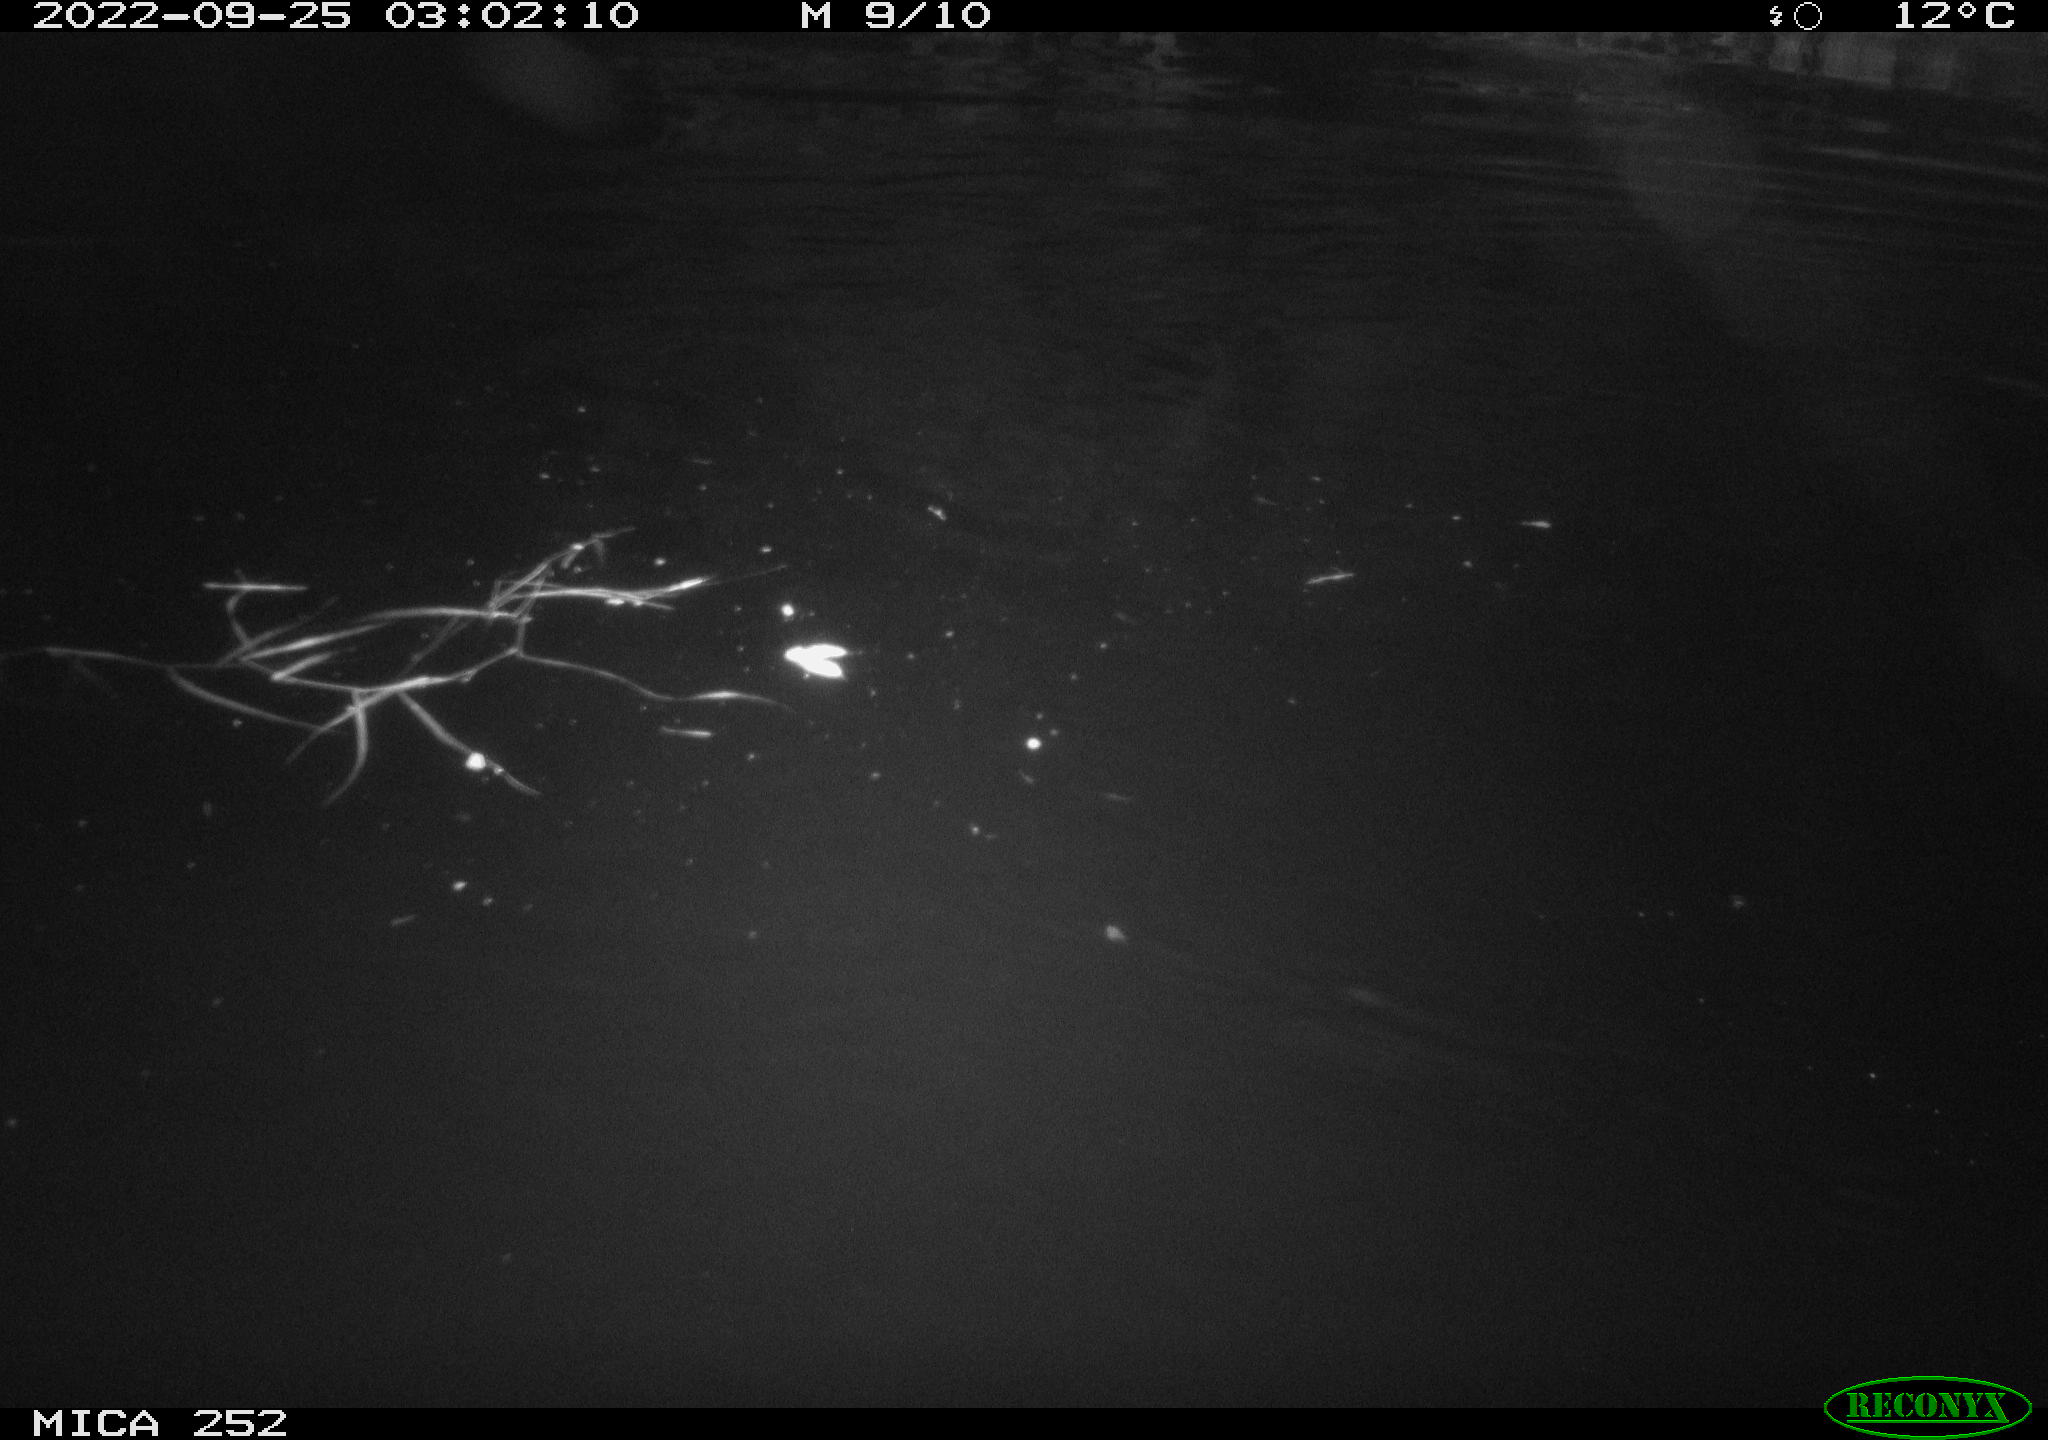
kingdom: Animalia
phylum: Chordata
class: Mammalia
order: Rodentia
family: Castoridae
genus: Castor
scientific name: Castor fiber
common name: Eurasian beaver
